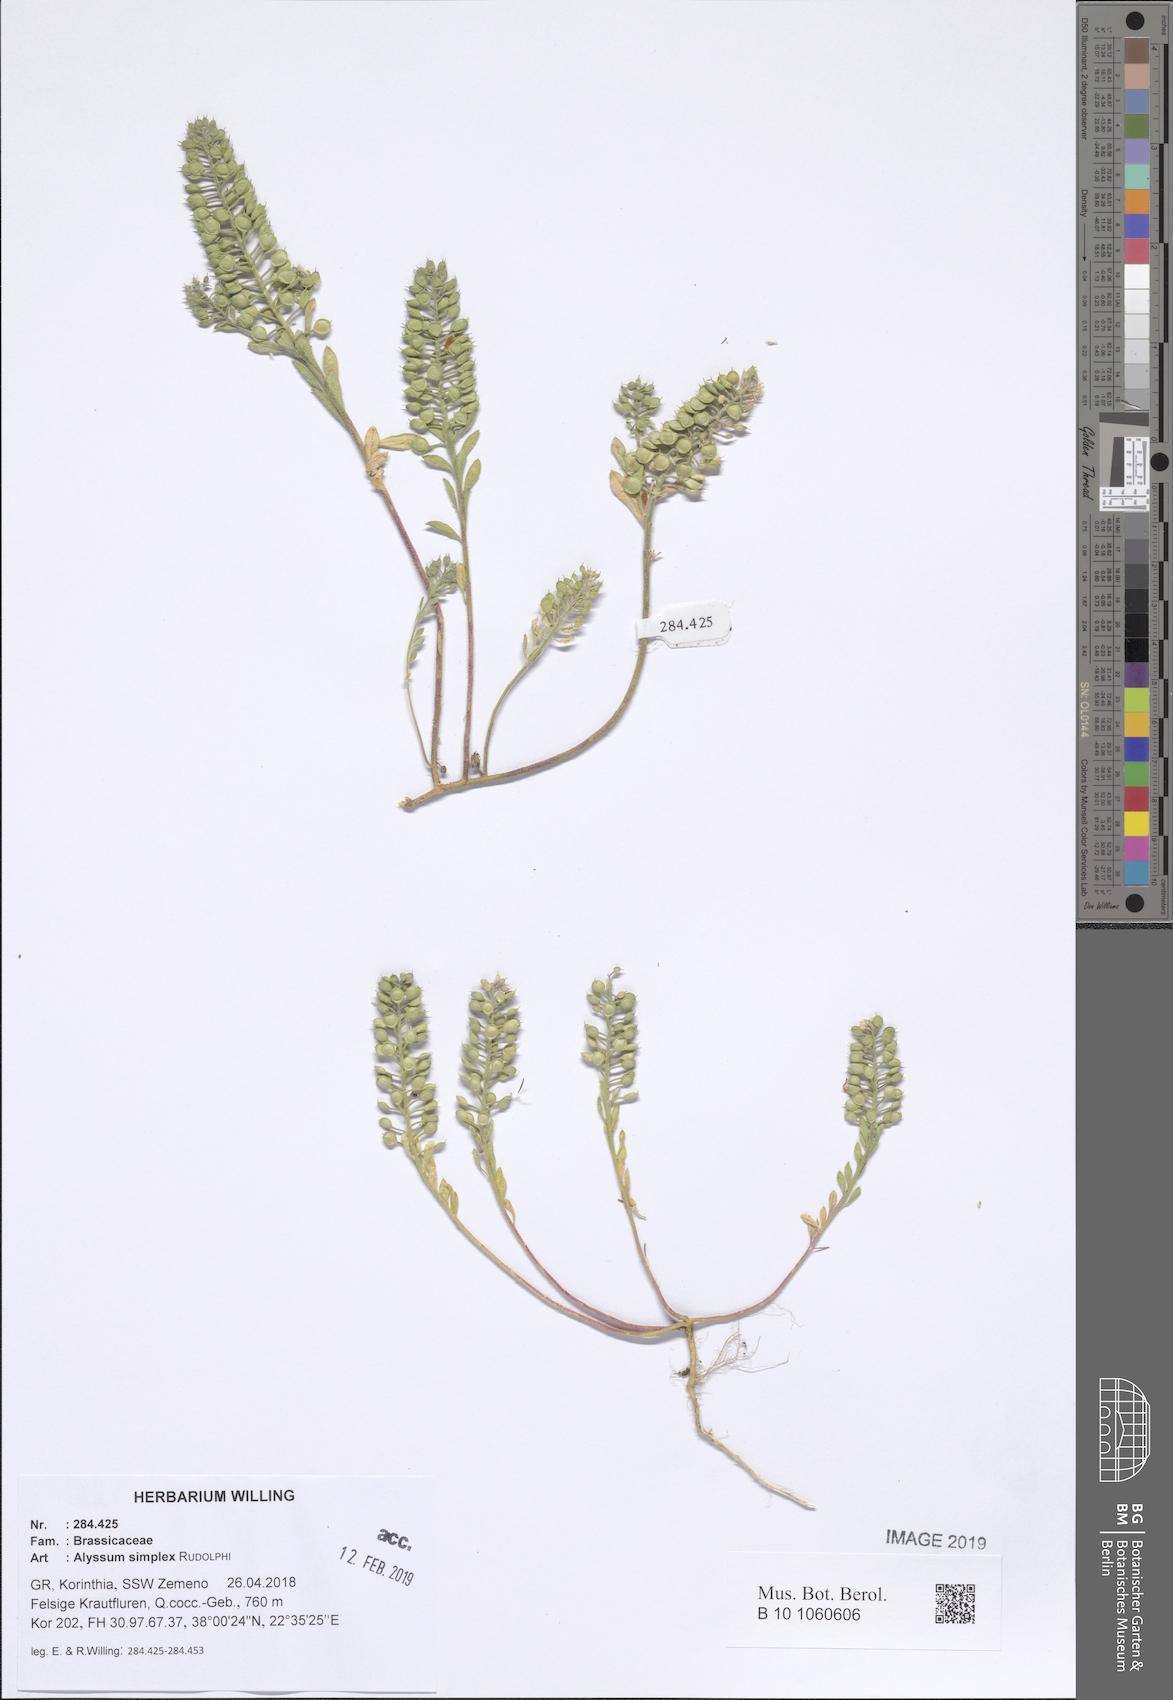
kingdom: Plantae
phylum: Tracheophyta
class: Magnoliopsida
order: Brassicales
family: Brassicaceae
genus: Alyssum
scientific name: Alyssum simplex
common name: Alyssum
